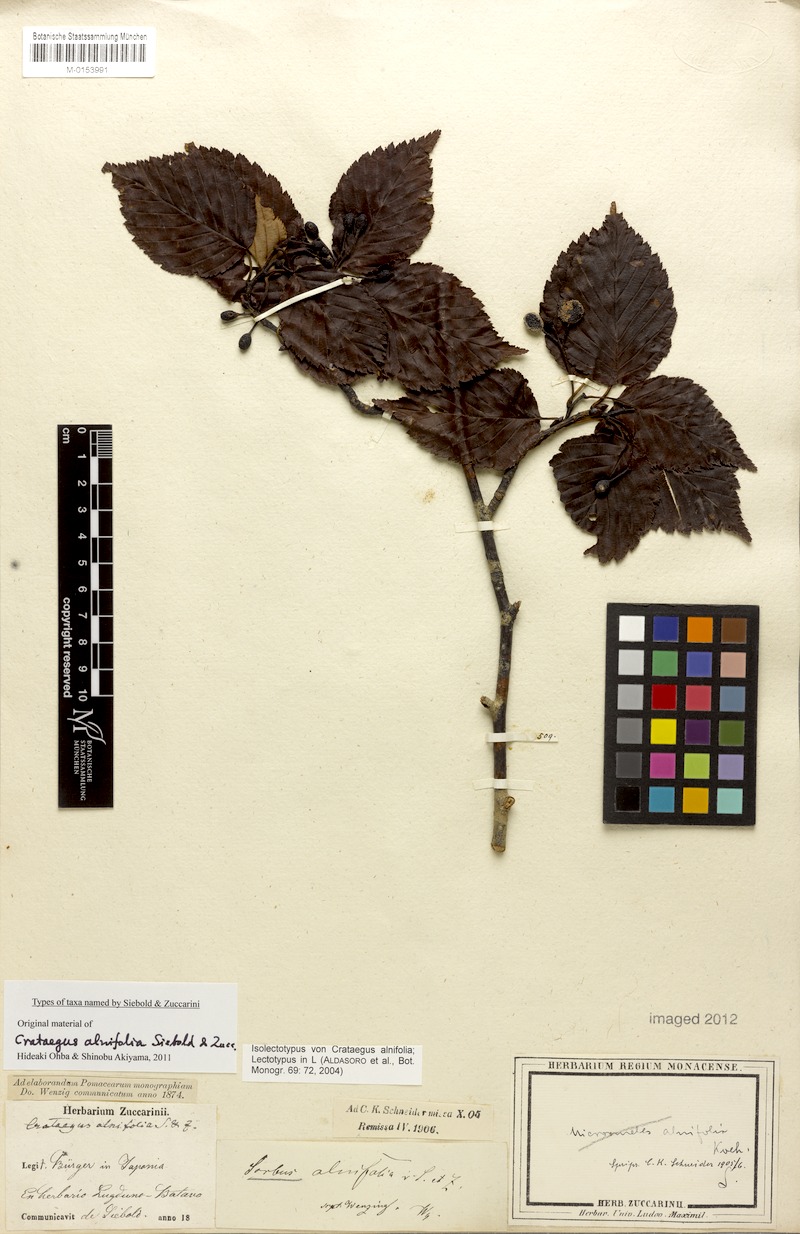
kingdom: Plantae
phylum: Tracheophyta
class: Magnoliopsida
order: Rosales
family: Rosaceae
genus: Sorbus
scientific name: Sorbus alnifolia
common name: Mountain-ash
